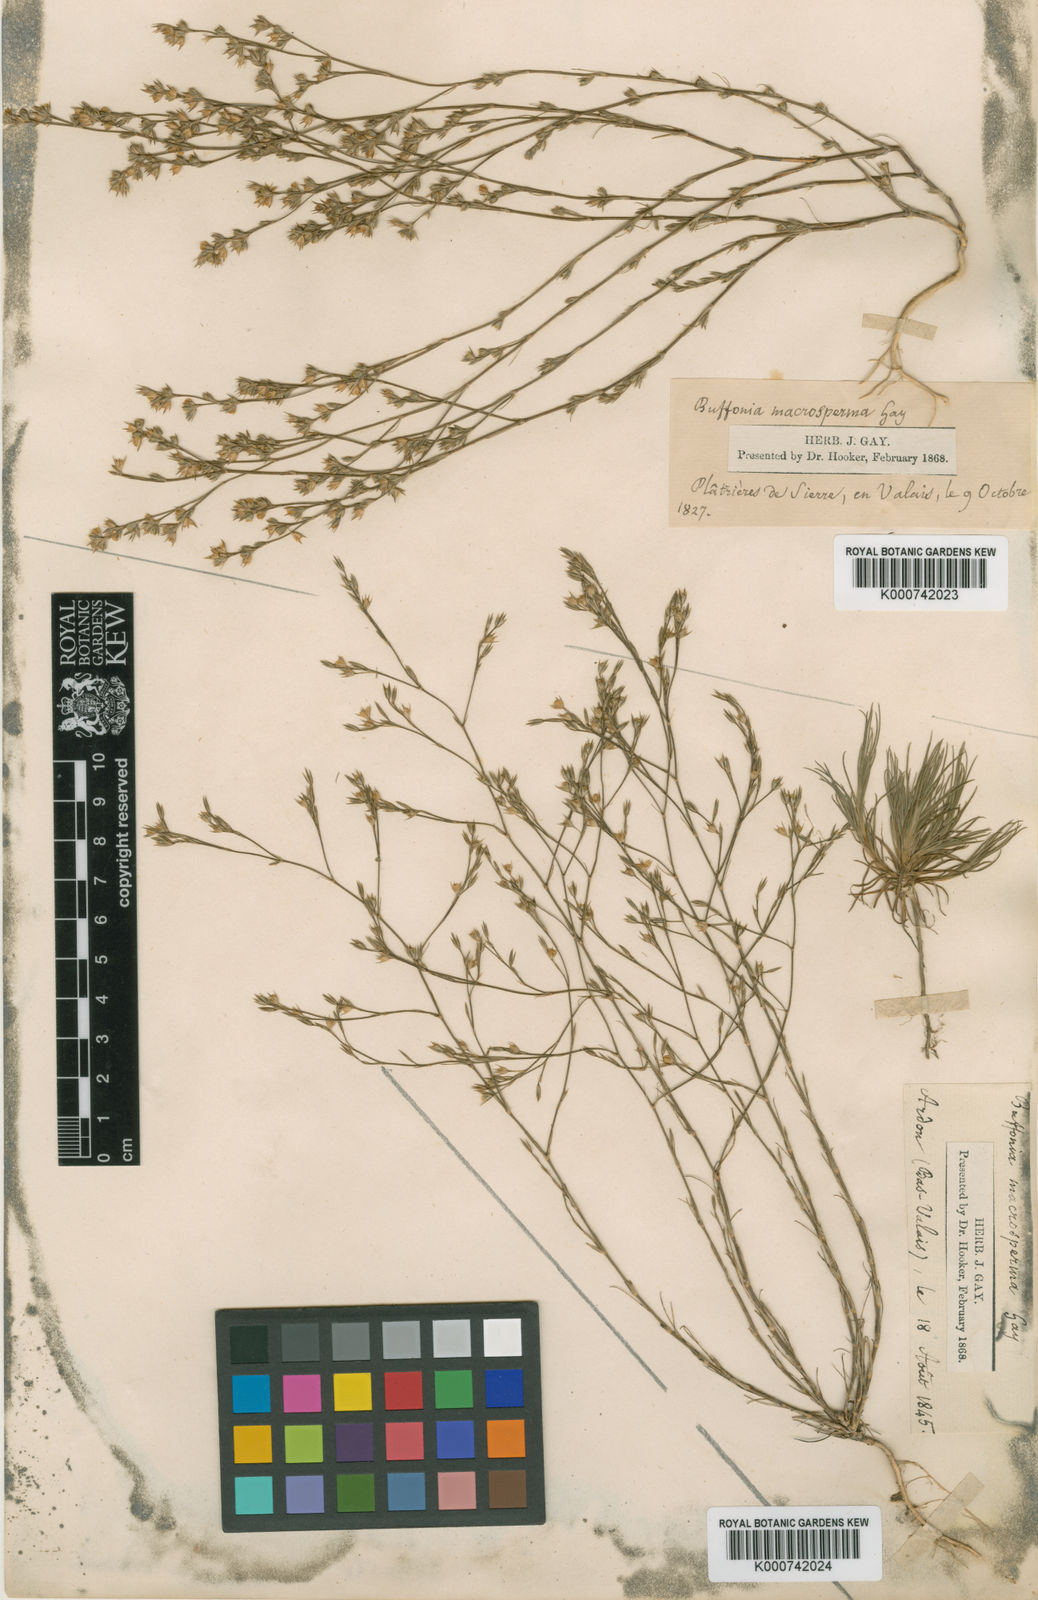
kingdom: Plantae
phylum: Tracheophyta
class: Magnoliopsida
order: Caryophyllales
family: Caryophyllaceae
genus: Bufonia
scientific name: Bufonia paniculata
